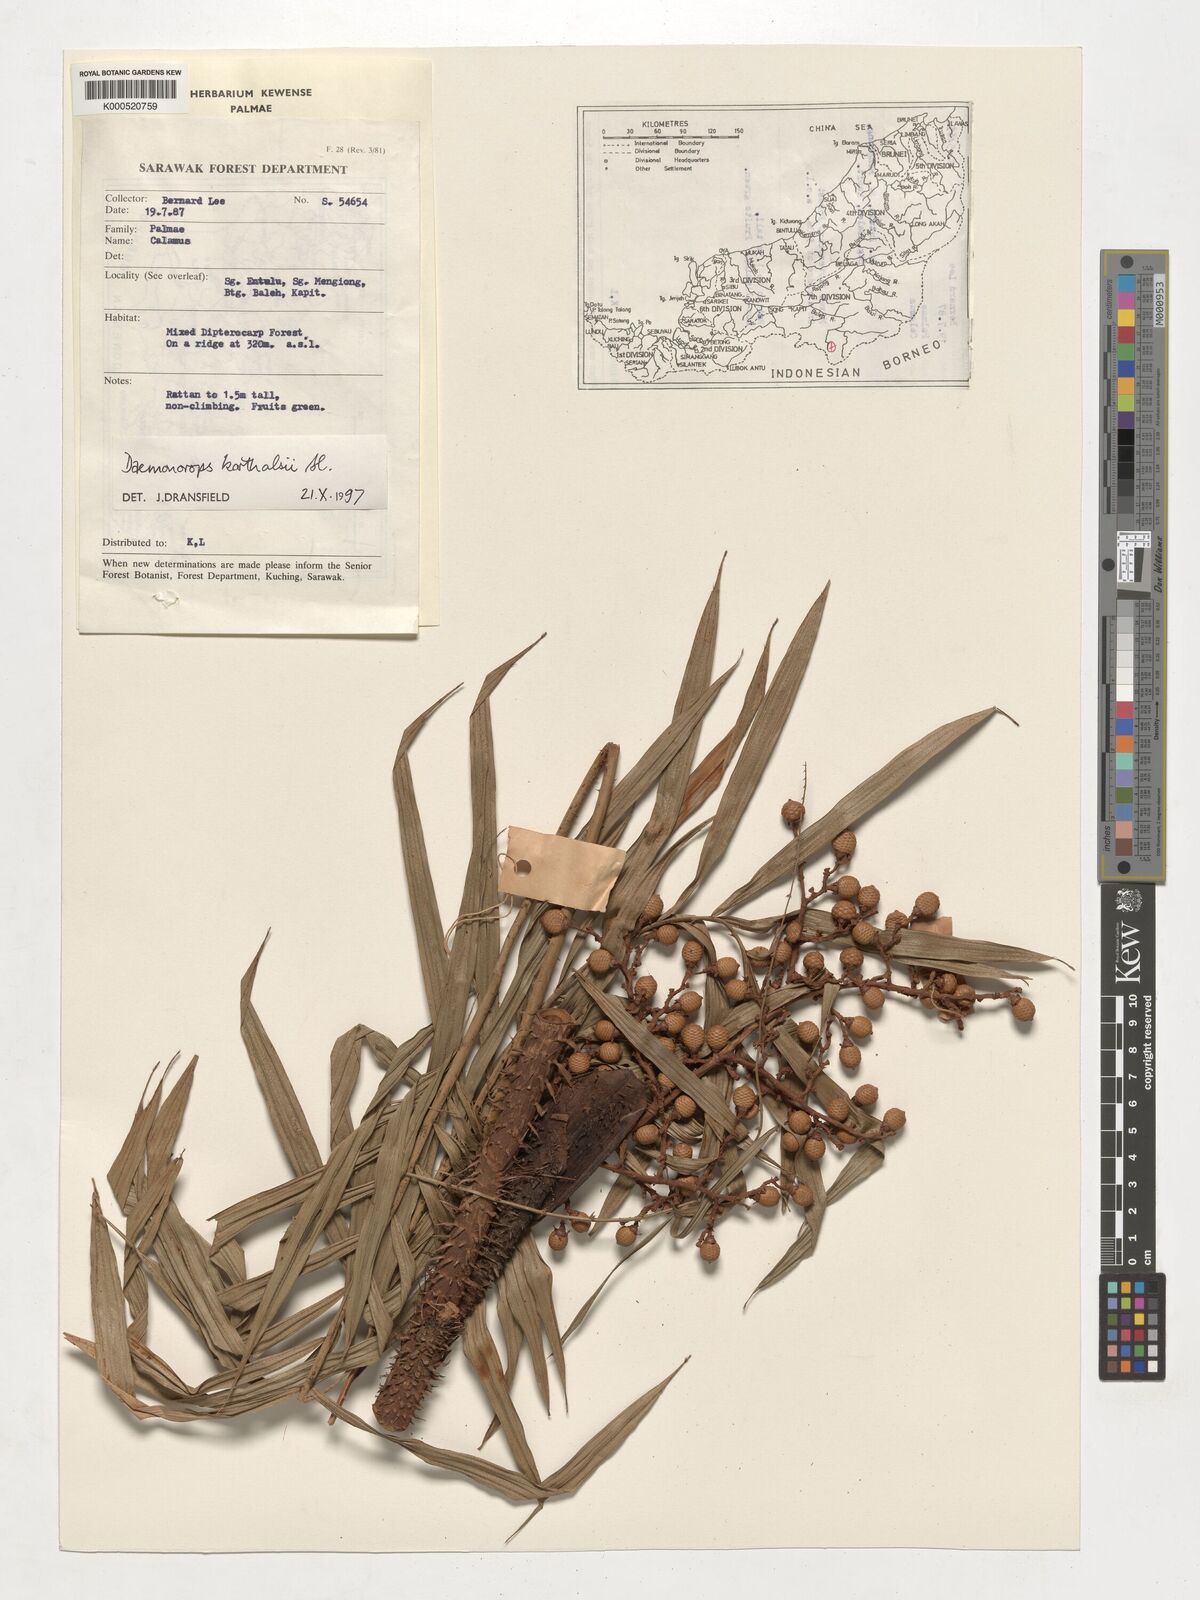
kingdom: Plantae
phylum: Tracheophyta
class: Liliopsida
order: Arecales
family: Arecaceae
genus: Calamus
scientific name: Calamus hirsutus
